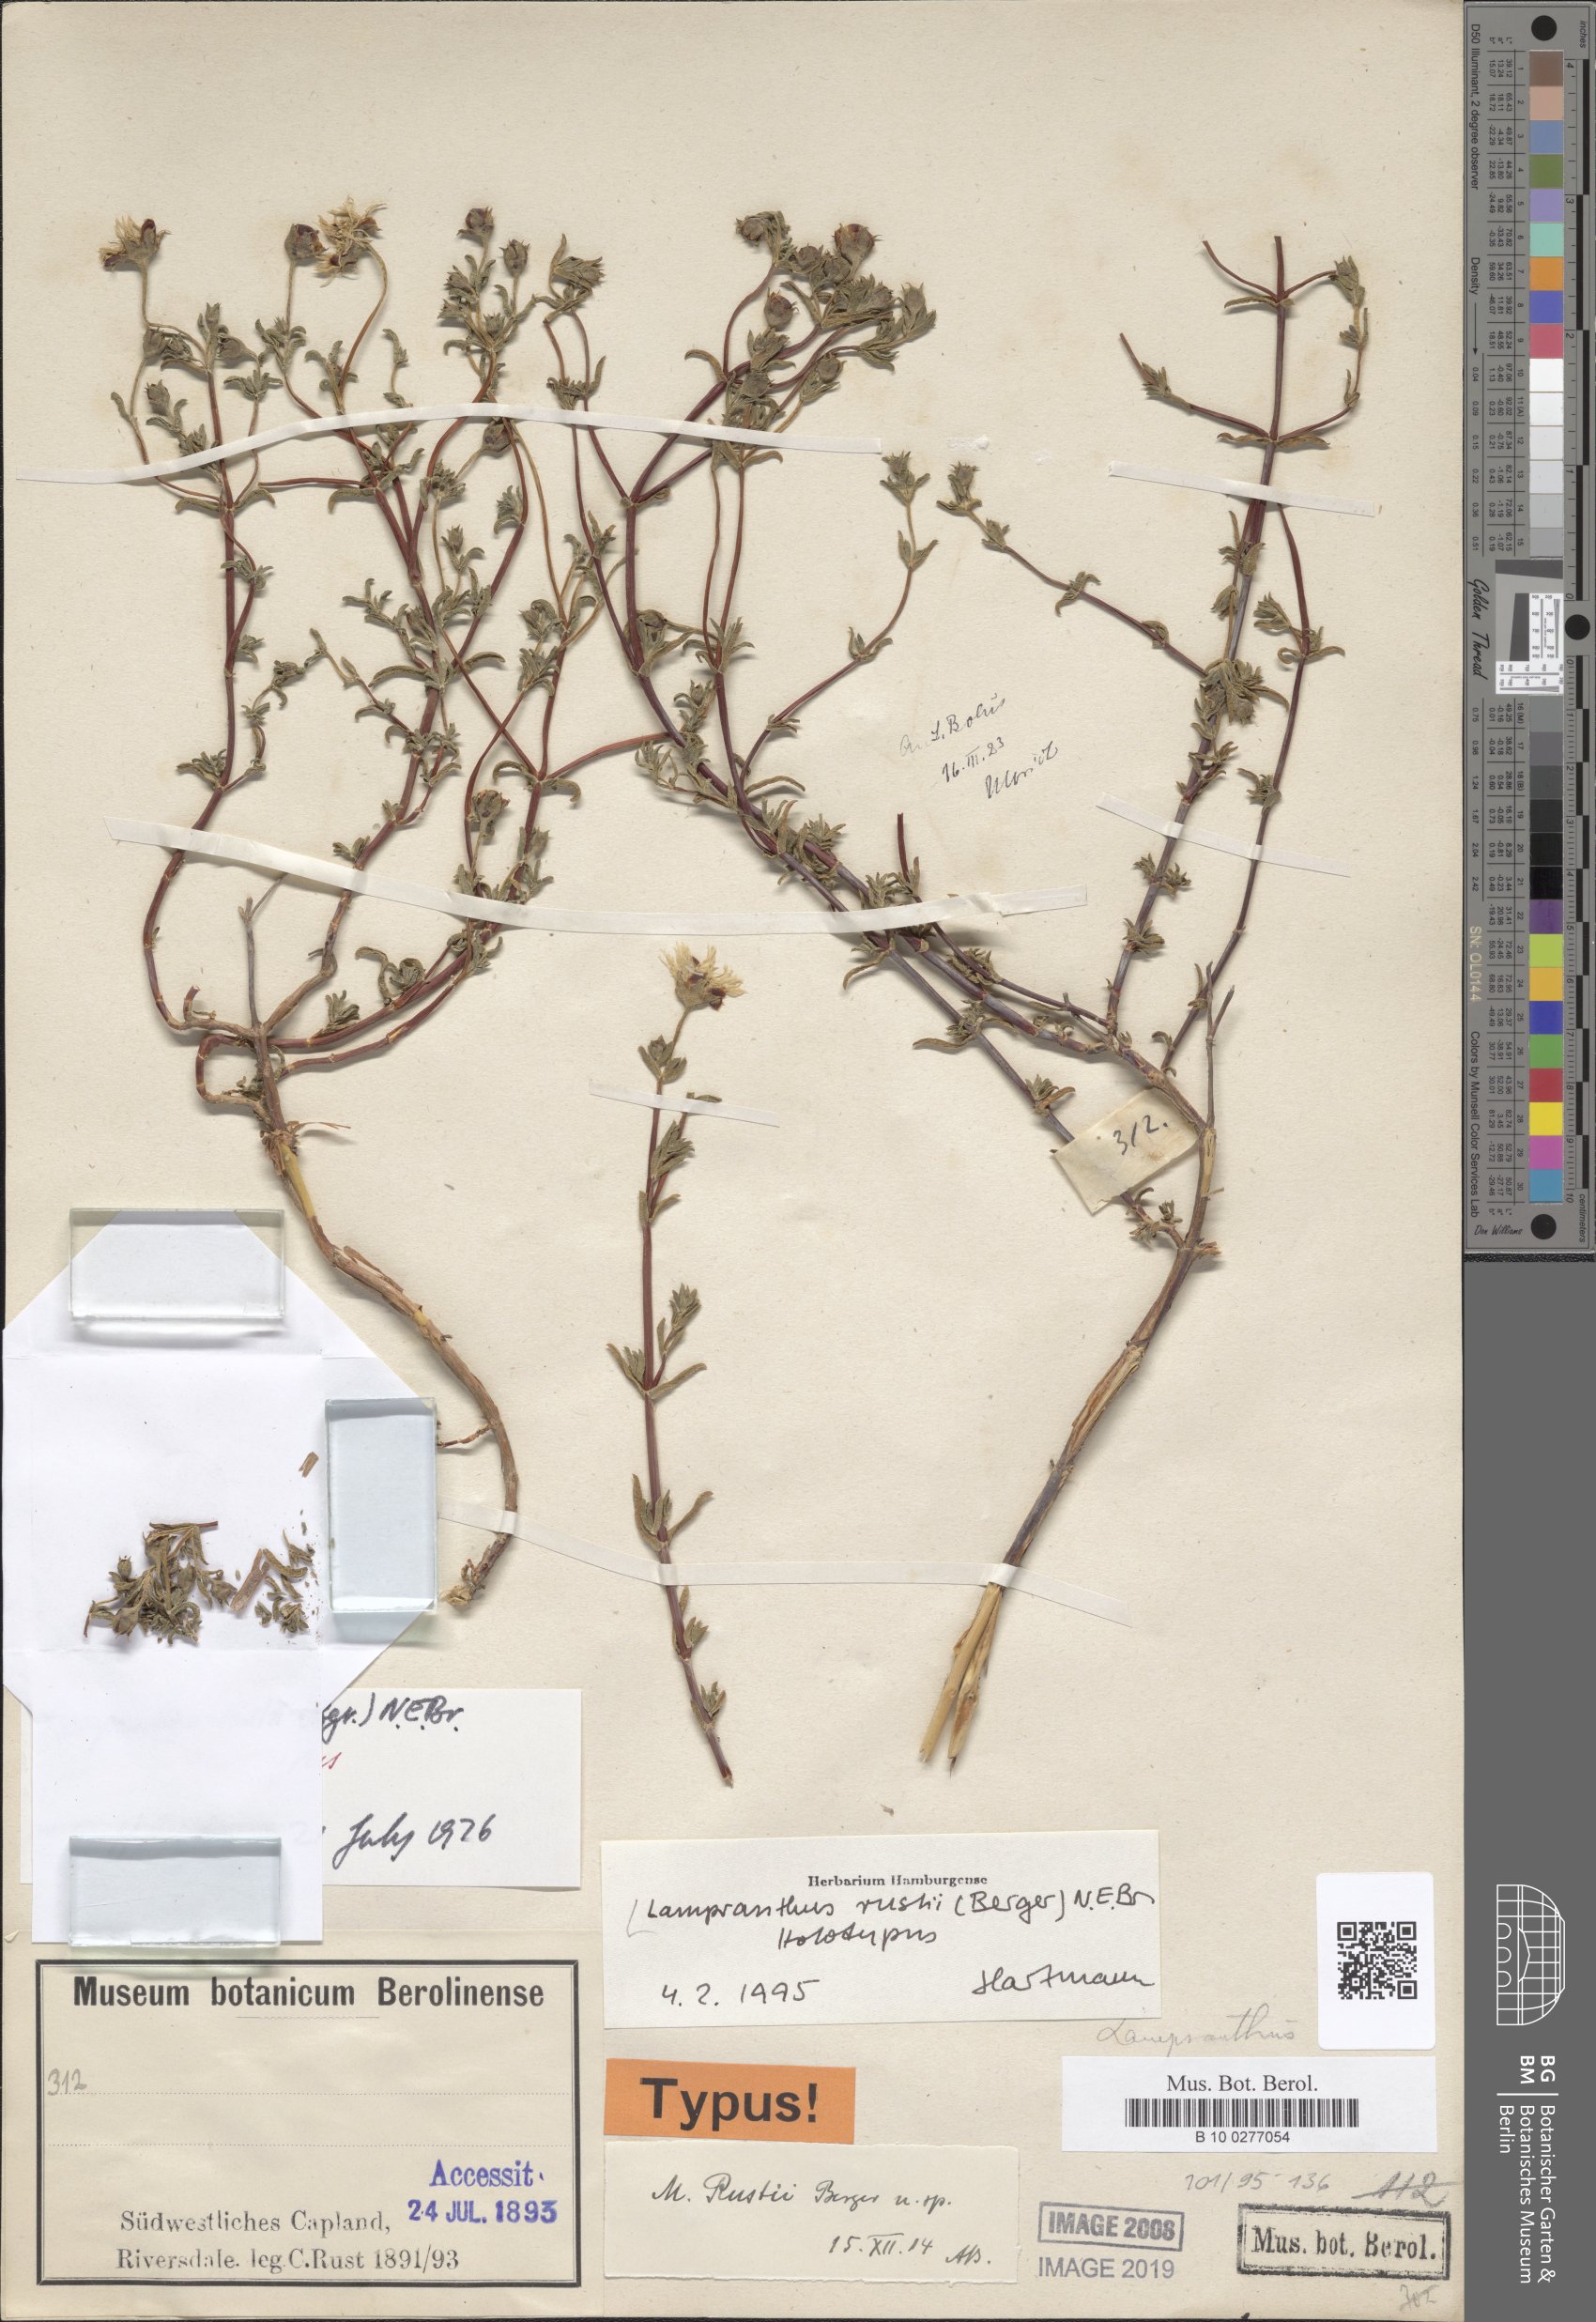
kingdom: Plantae
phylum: Tracheophyta
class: Magnoliopsida
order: Caryophyllales
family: Aizoaceae
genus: Lampranthus
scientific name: Lampranthus rustii
